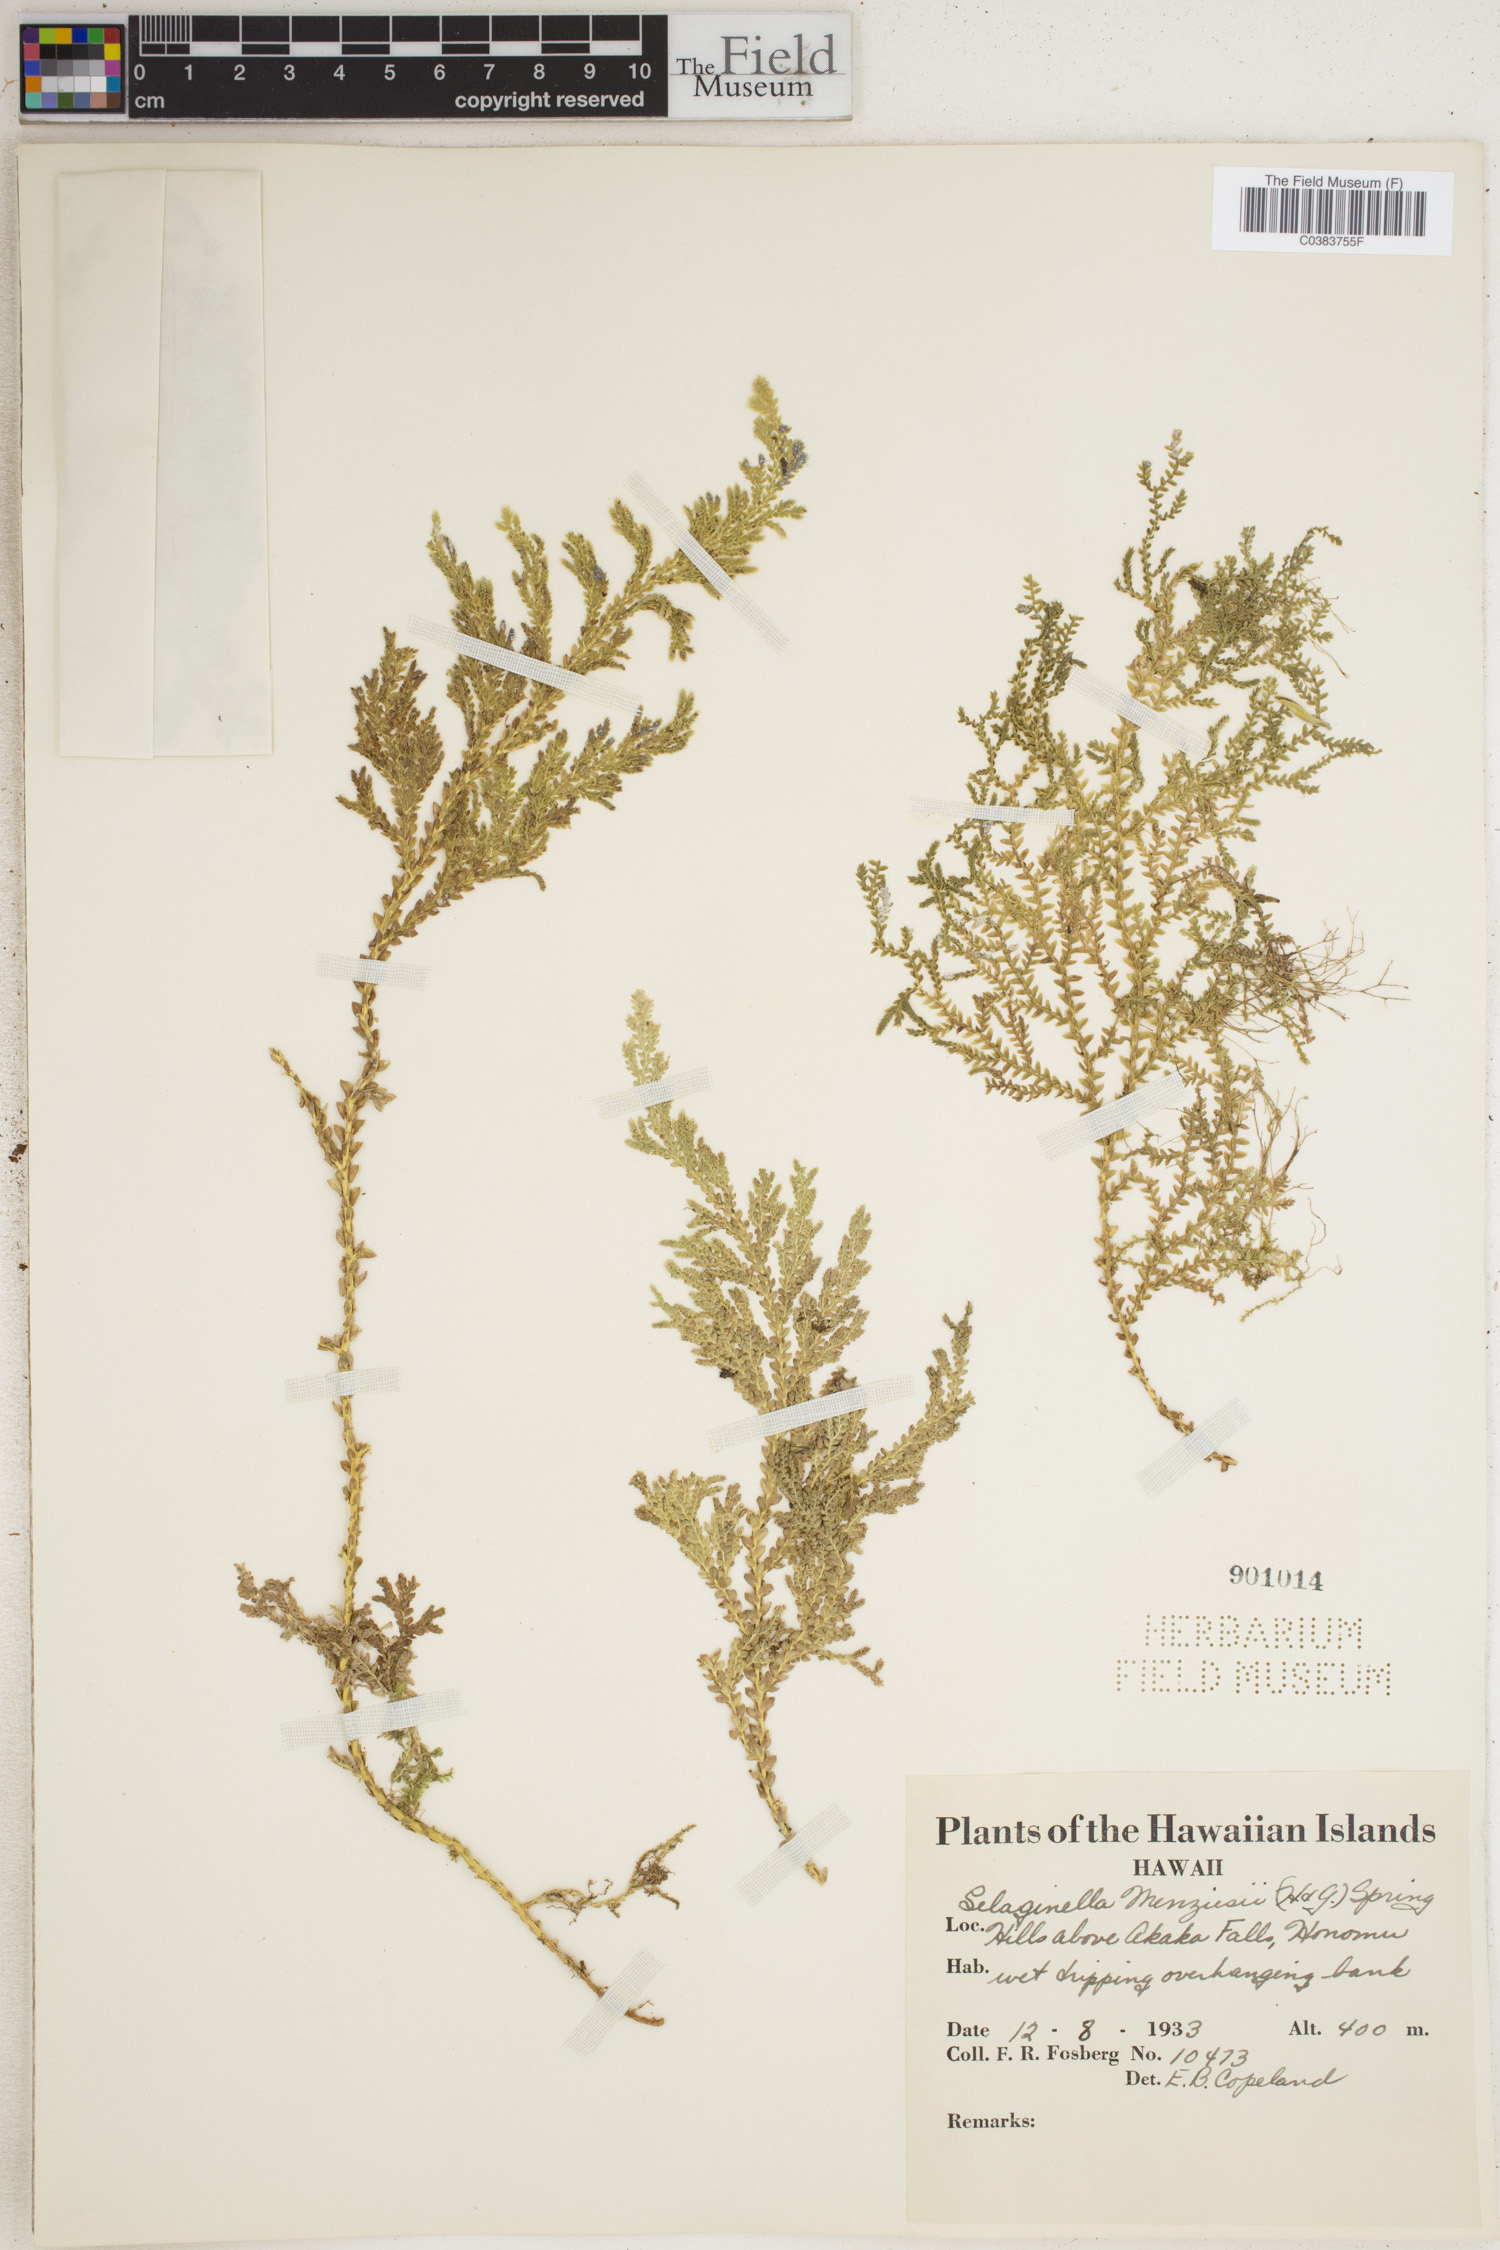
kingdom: Plantae
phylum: Tracheophyta
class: Lycopodiopsida
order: Selaginellales
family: Selaginellaceae
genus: Selaginella
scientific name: Selaginella menziesii
